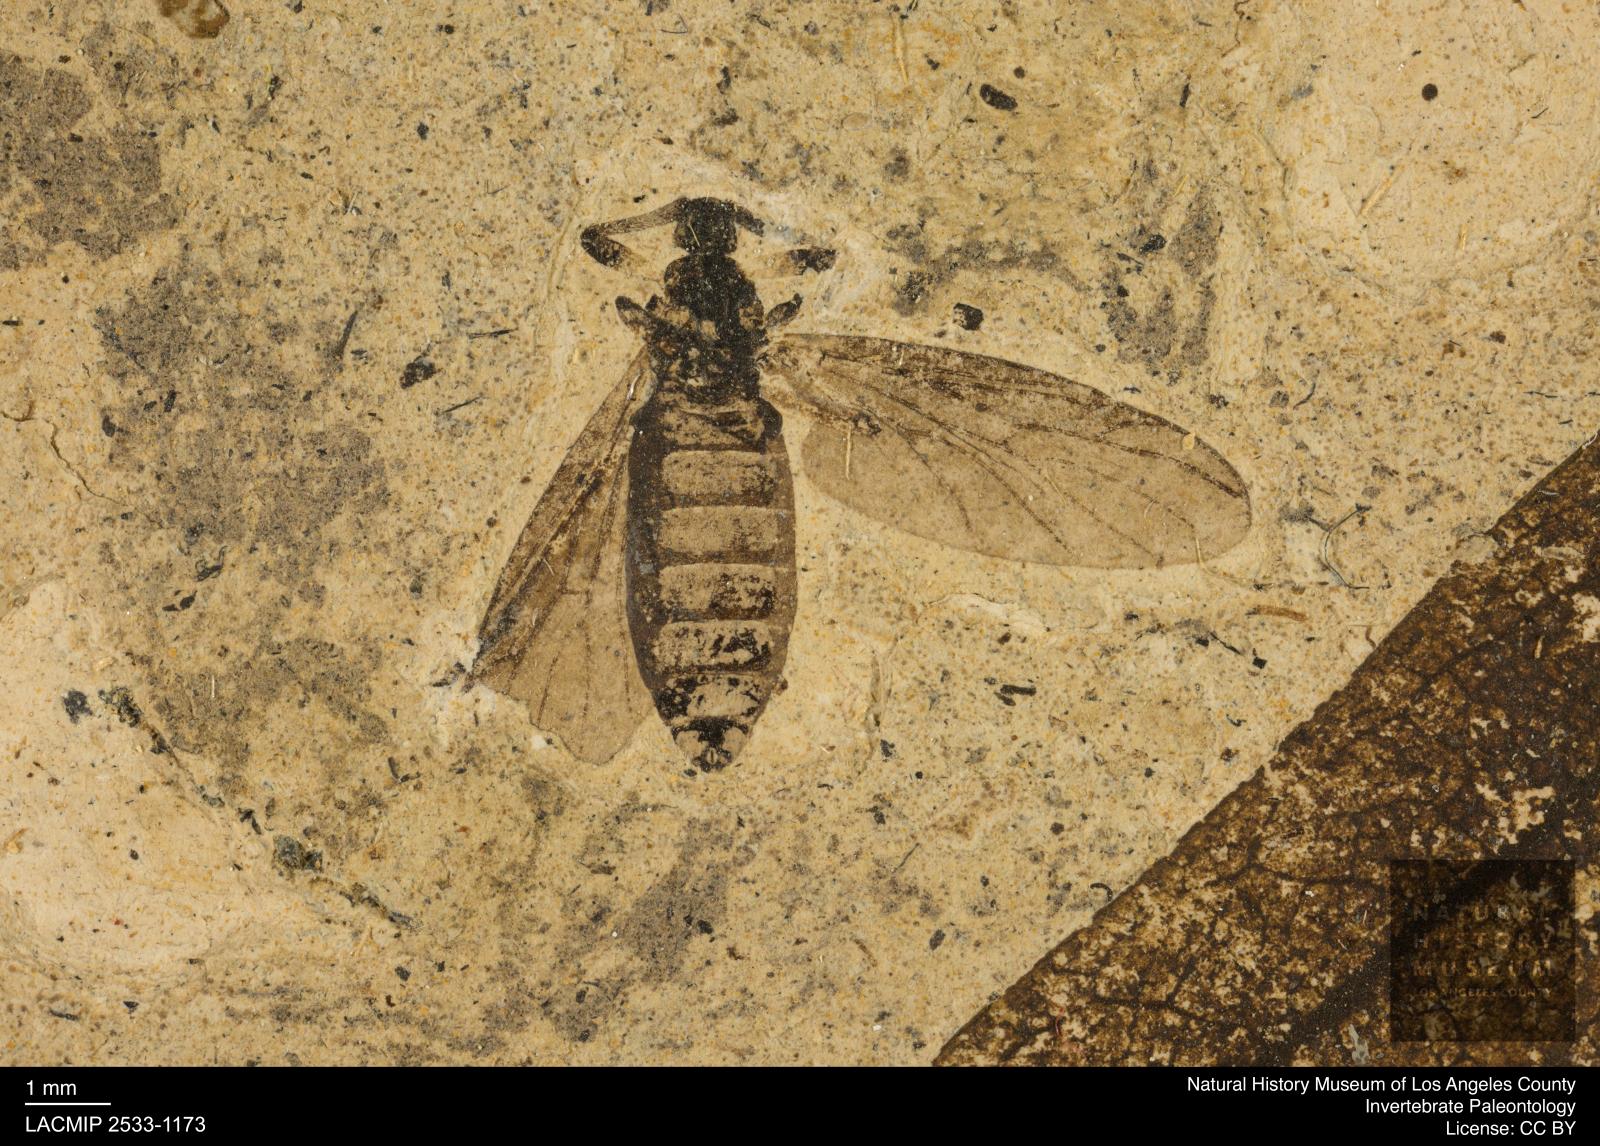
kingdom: Animalia
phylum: Arthropoda
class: Insecta
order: Diptera
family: Bibionidae
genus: Plecia
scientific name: Plecia stygia
